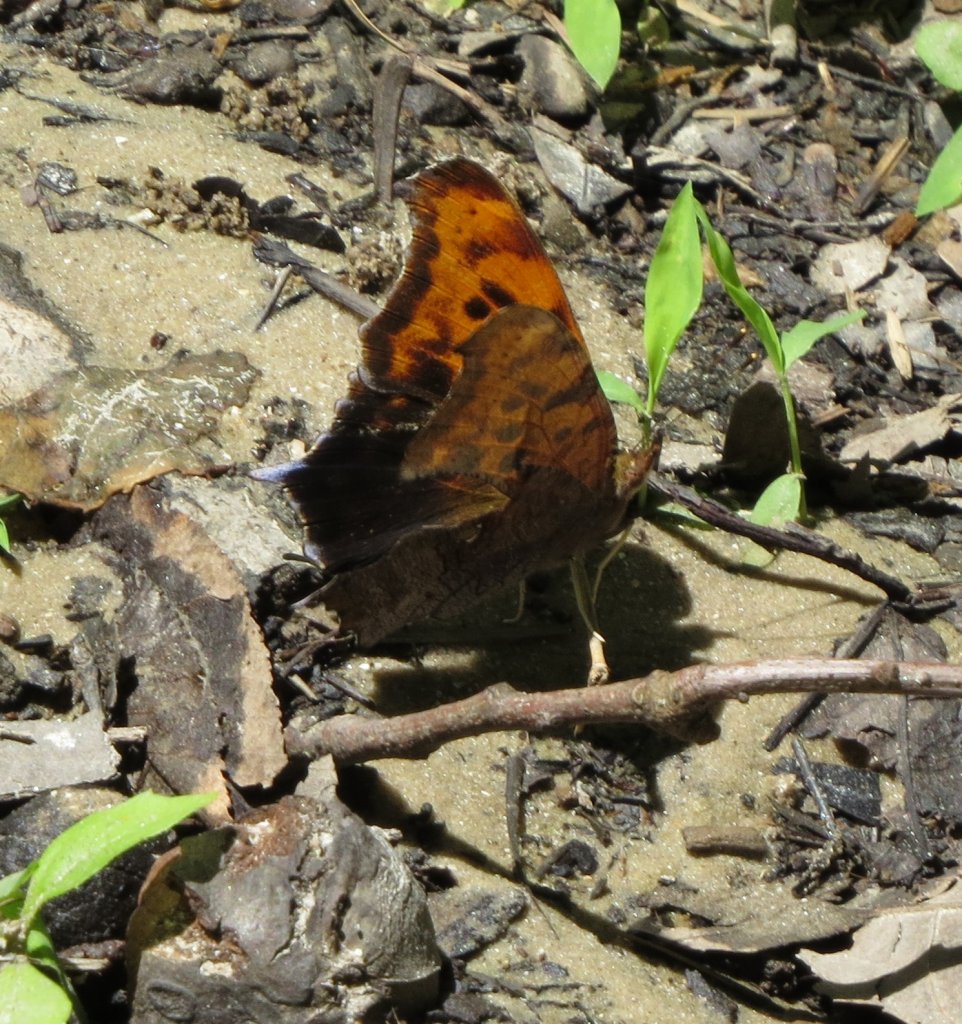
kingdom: Animalia
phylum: Arthropoda
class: Insecta
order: Lepidoptera
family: Nymphalidae
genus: Polygonia
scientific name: Polygonia interrogationis
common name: Question Mark
